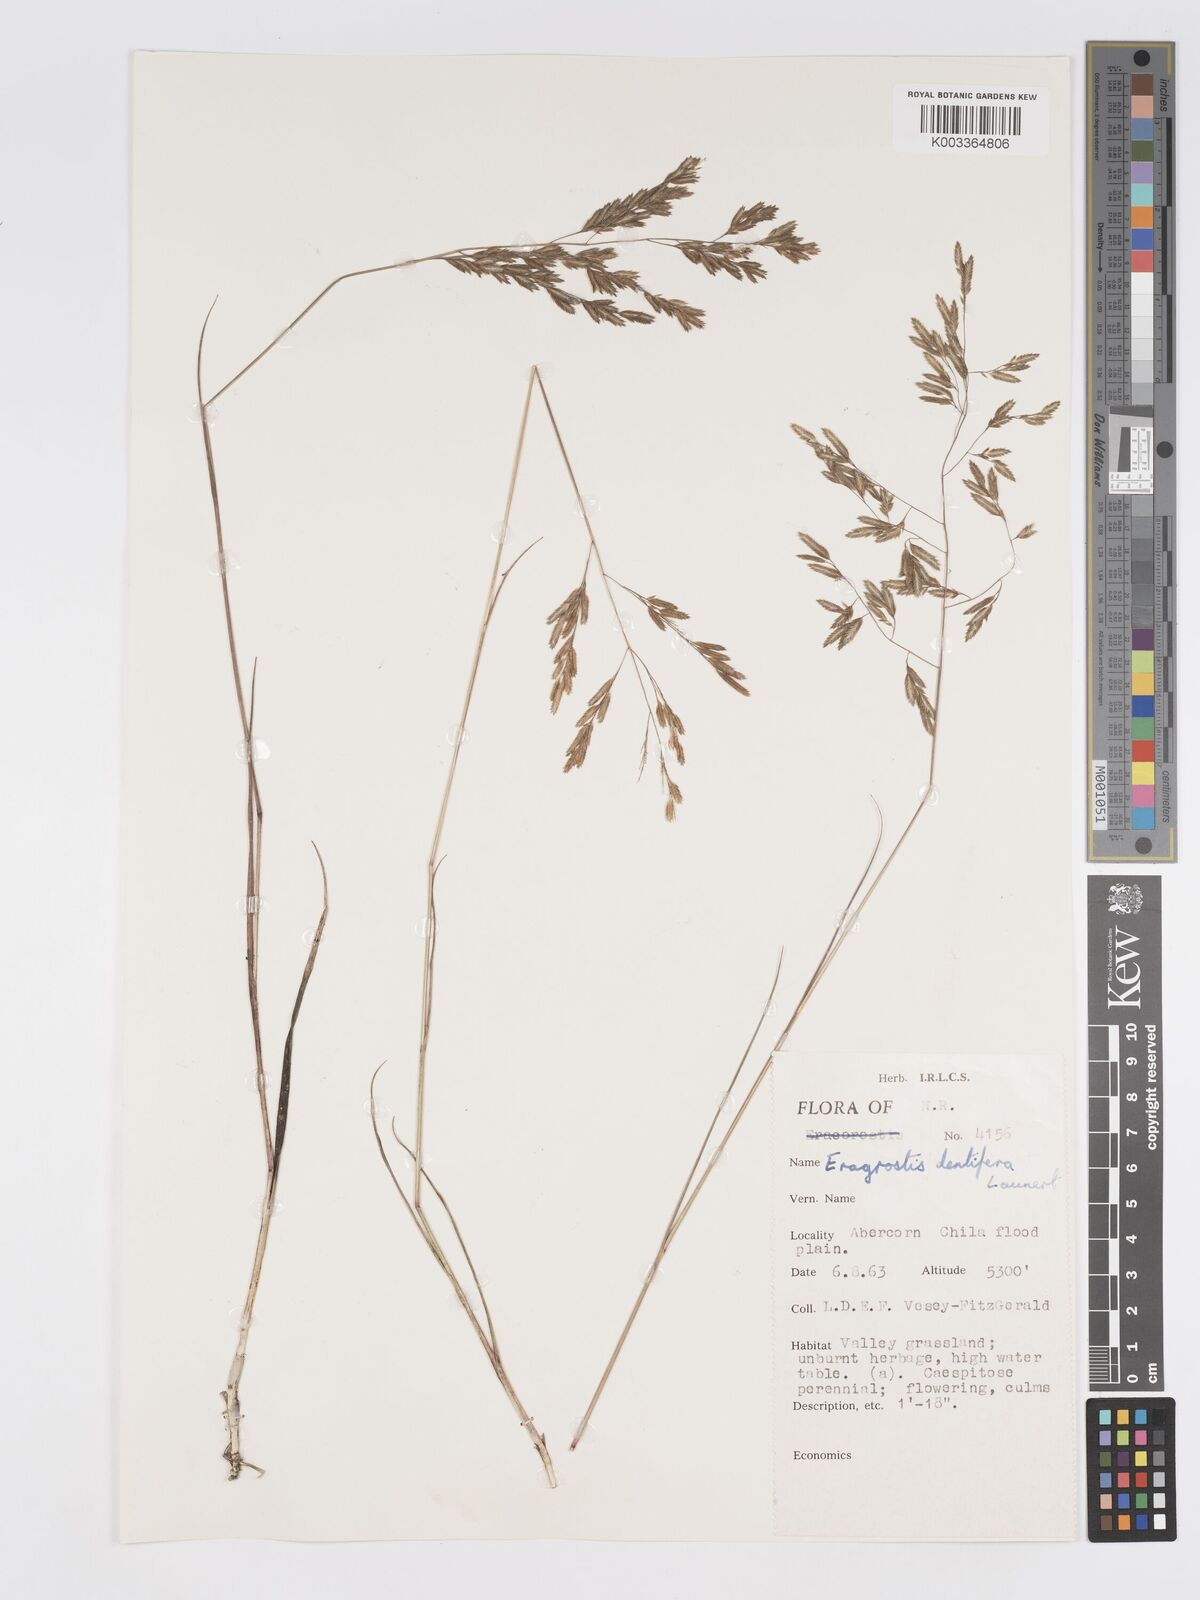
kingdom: Plantae
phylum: Tracheophyta
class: Liliopsida
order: Poales
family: Poaceae
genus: Eragrostis
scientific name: Eragrostis dentifera
